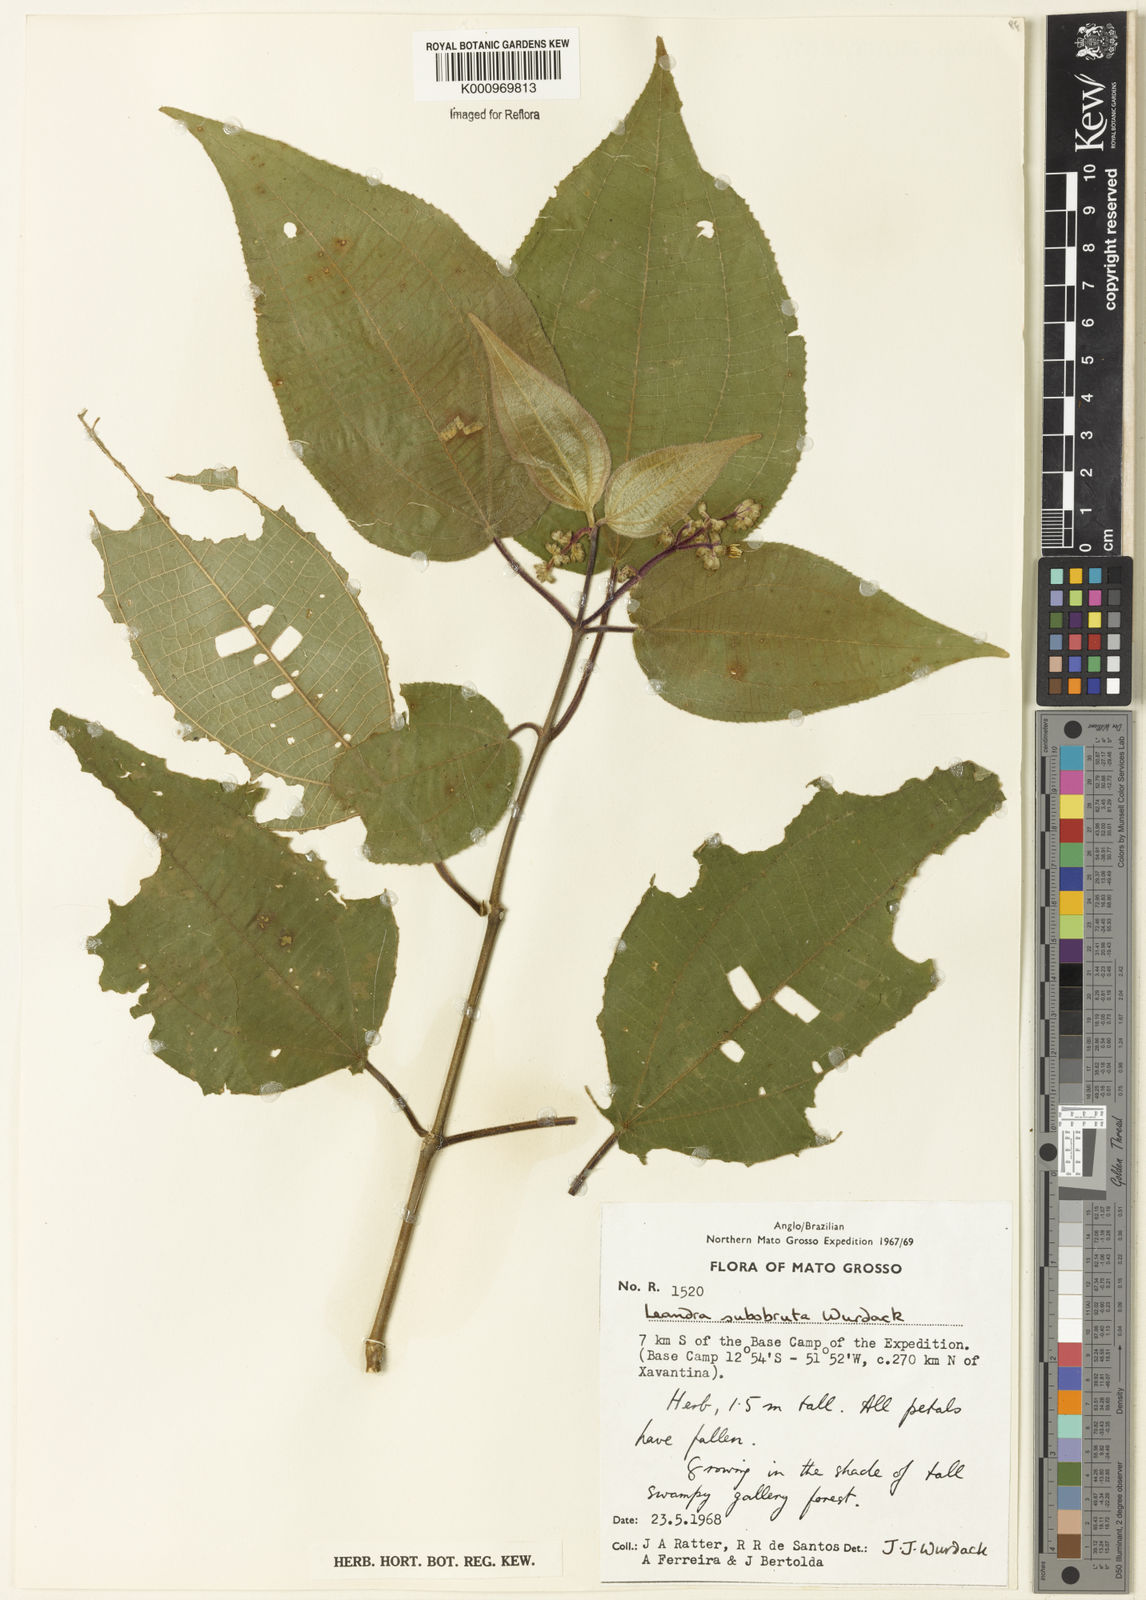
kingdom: Plantae
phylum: Tracheophyta
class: Magnoliopsida
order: Myrtales
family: Melastomataceae
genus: Miconia
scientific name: Miconia subobruta
